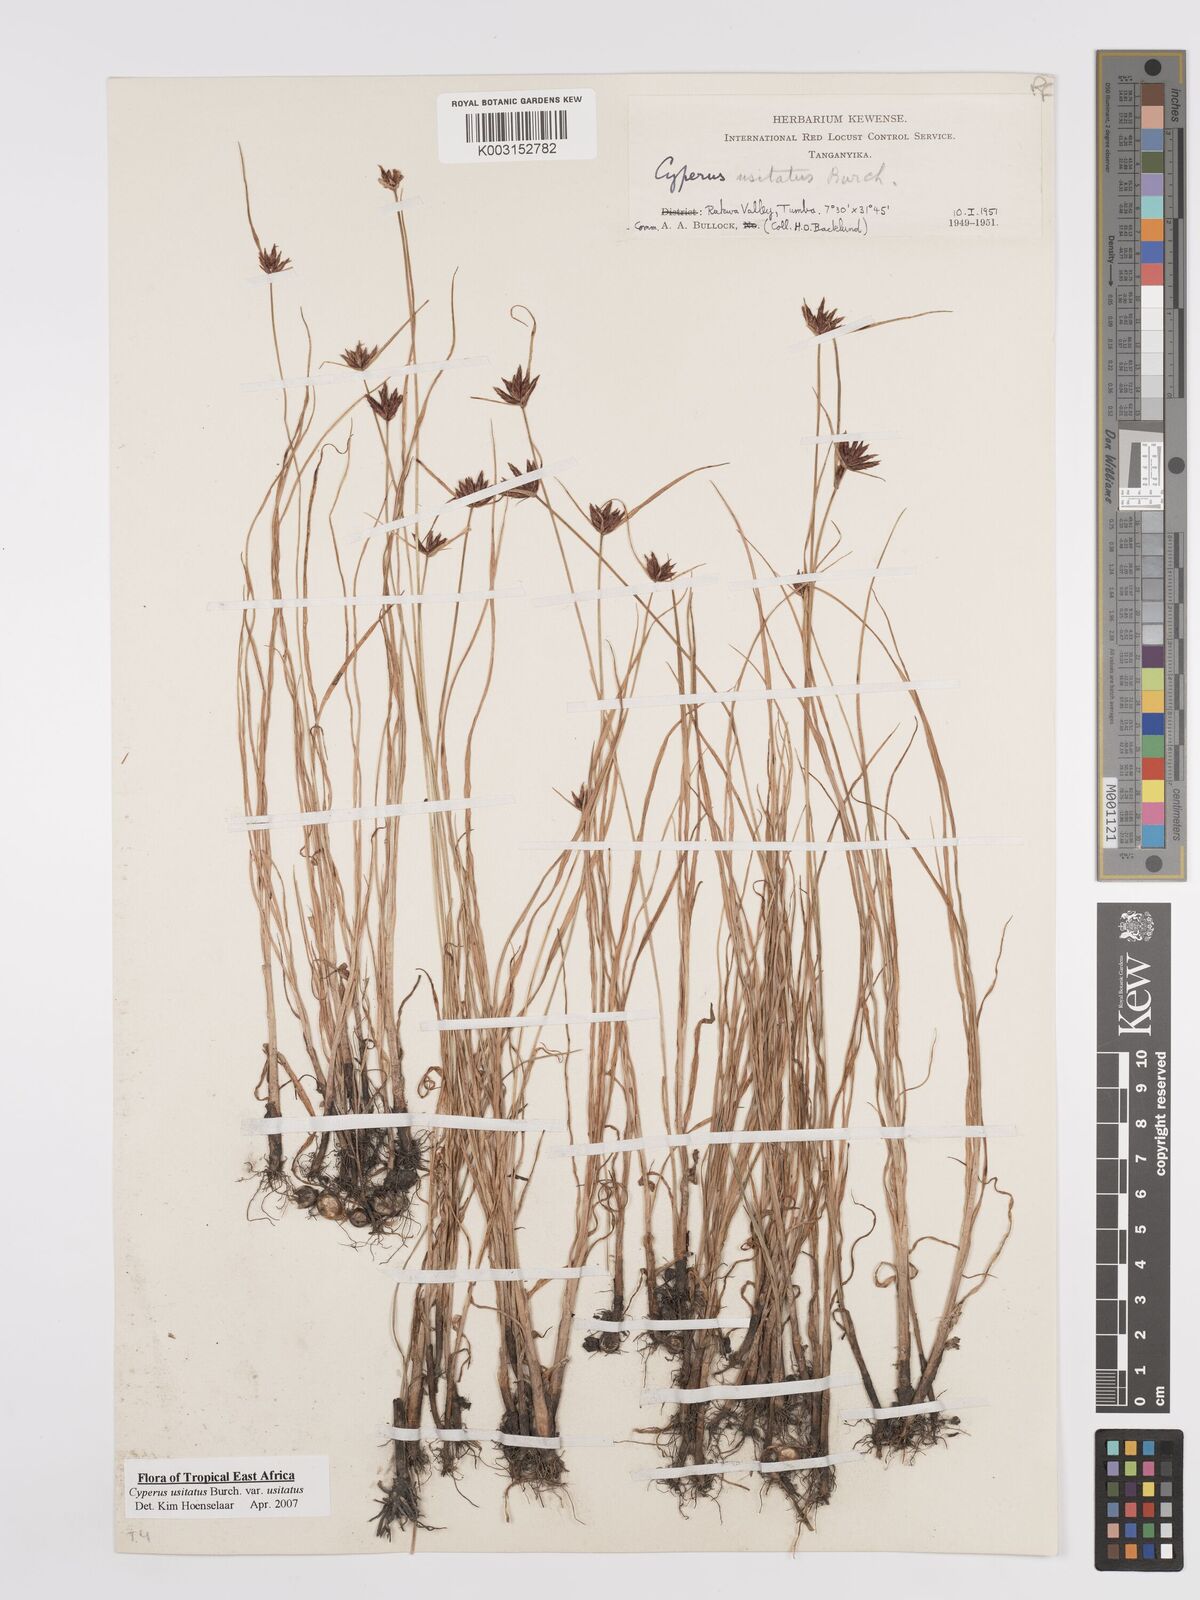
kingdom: Plantae
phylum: Tracheophyta
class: Liliopsida
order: Poales
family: Cyperaceae
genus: Cyperus
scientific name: Cyperus usitatus
